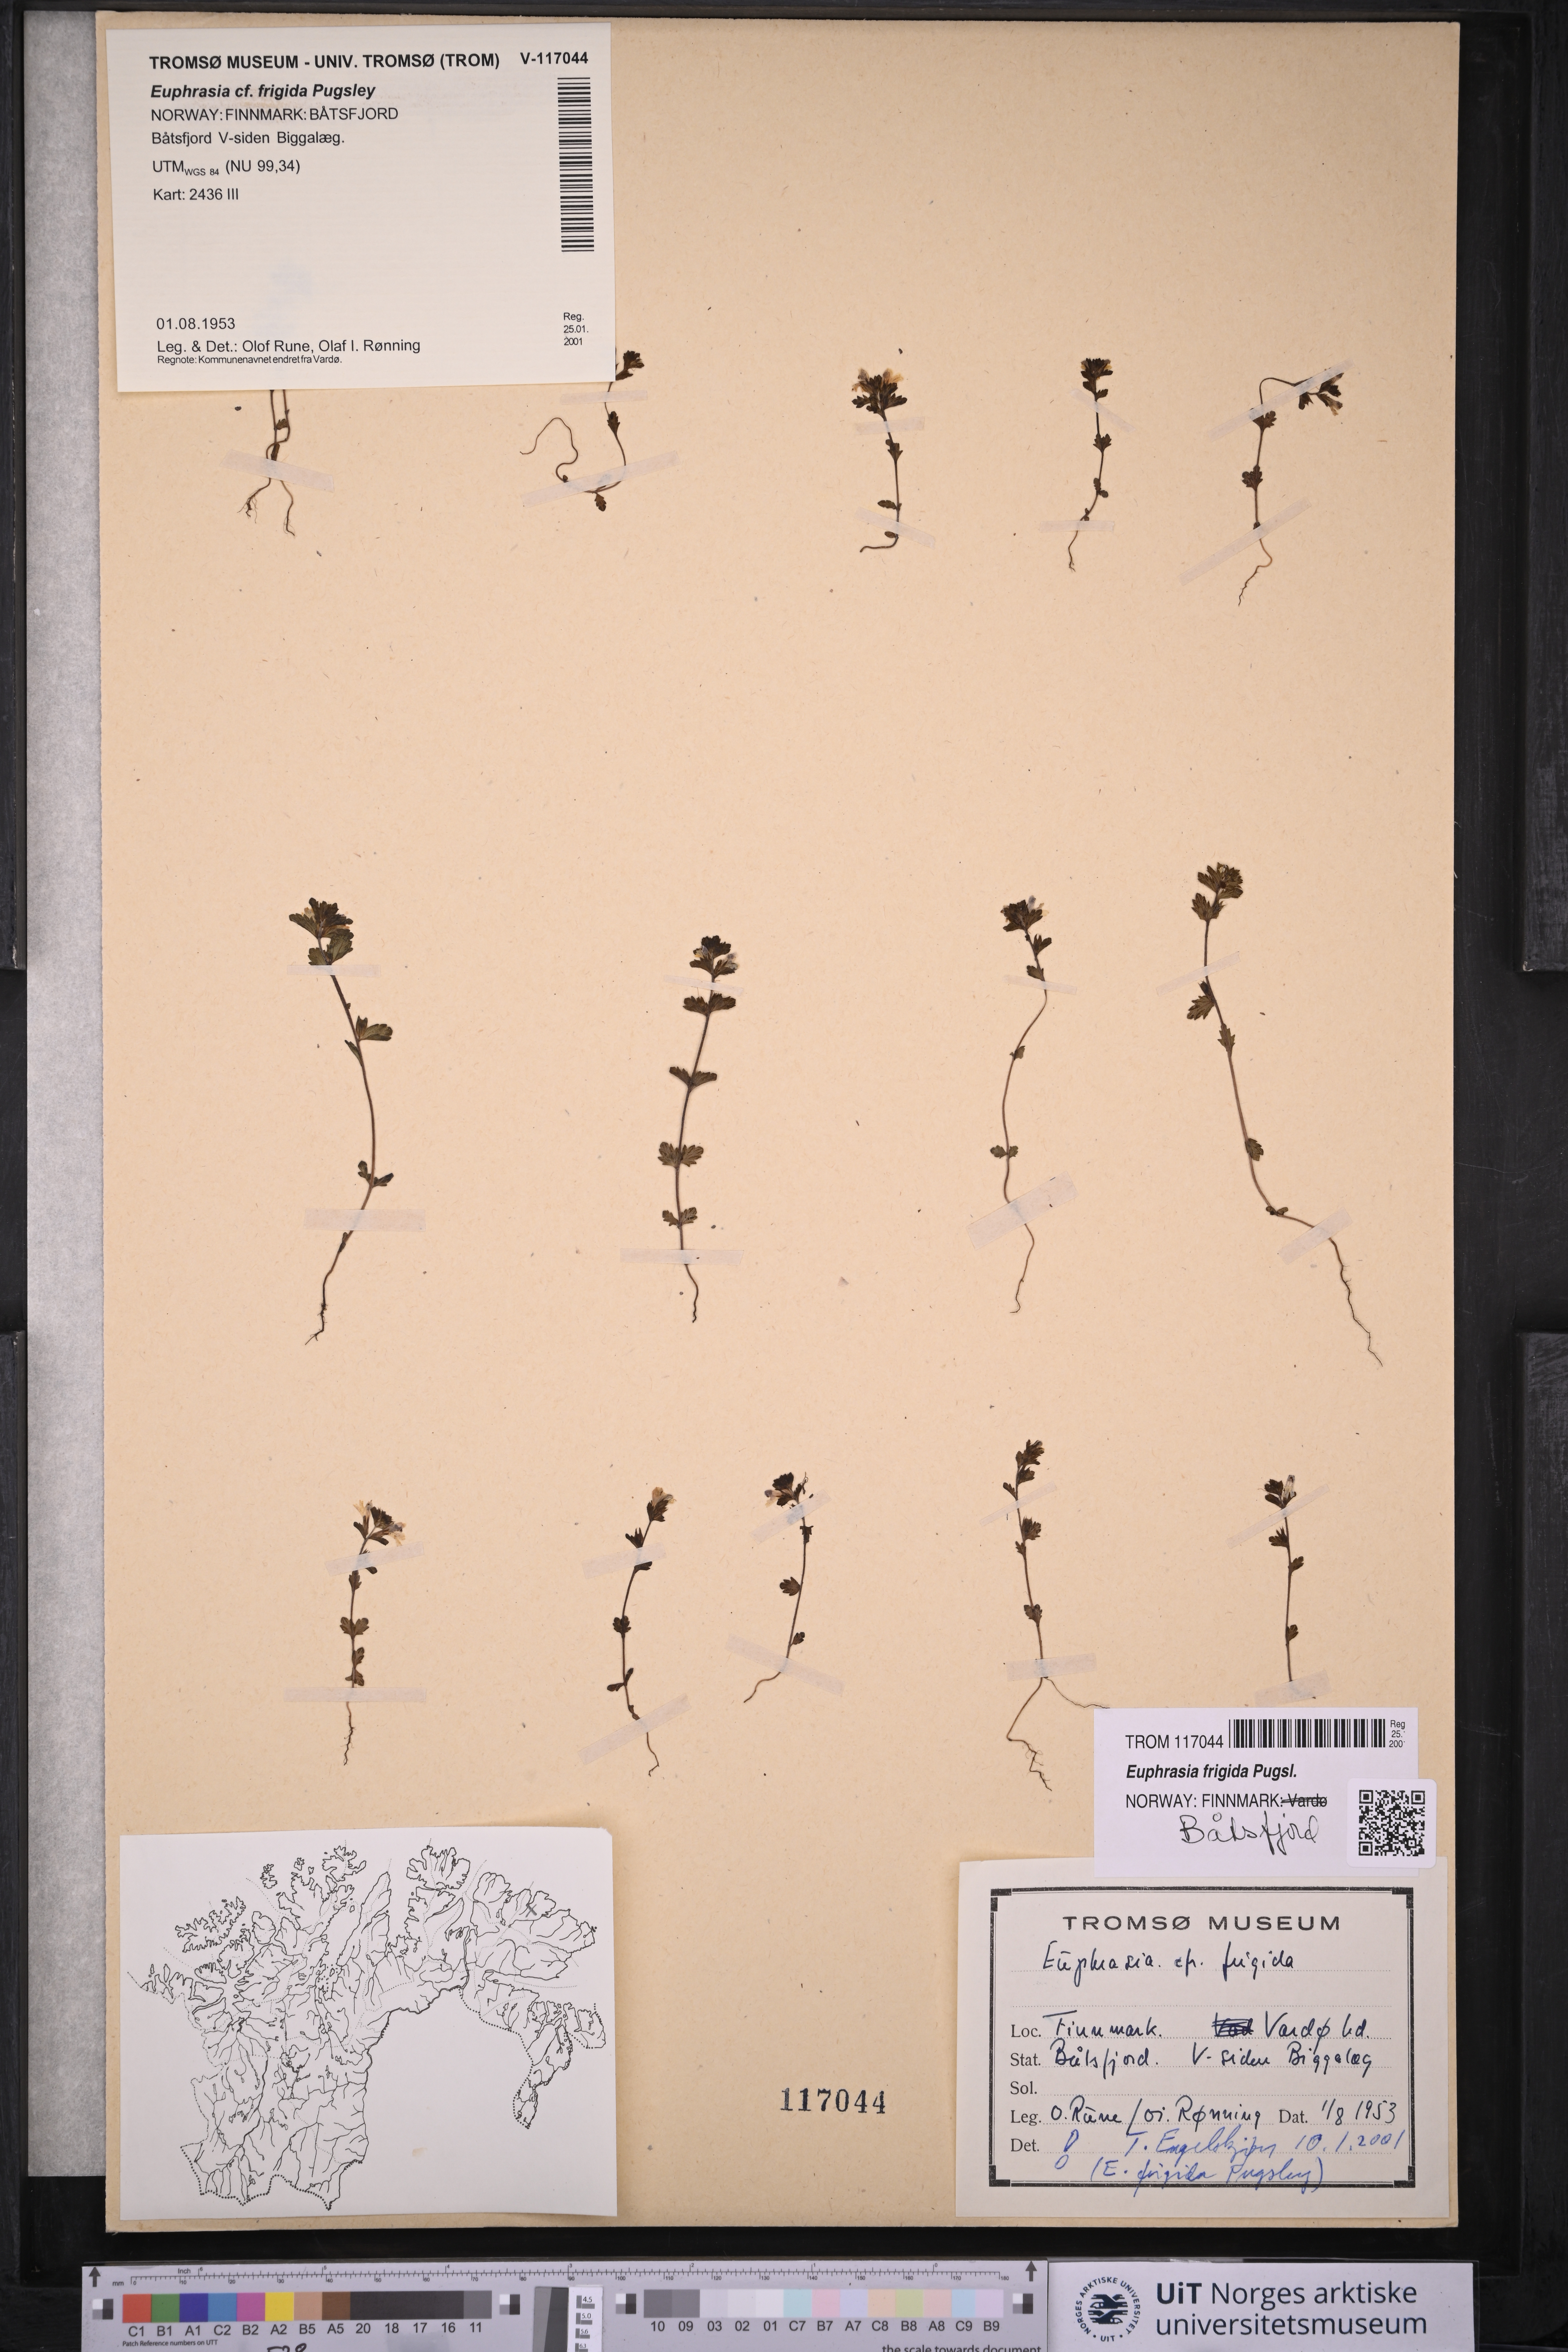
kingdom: Plantae
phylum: Tracheophyta
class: Magnoliopsida
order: Lamiales
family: Orobanchaceae
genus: Euphrasia
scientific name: Euphrasia frigida
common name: An eyebright
